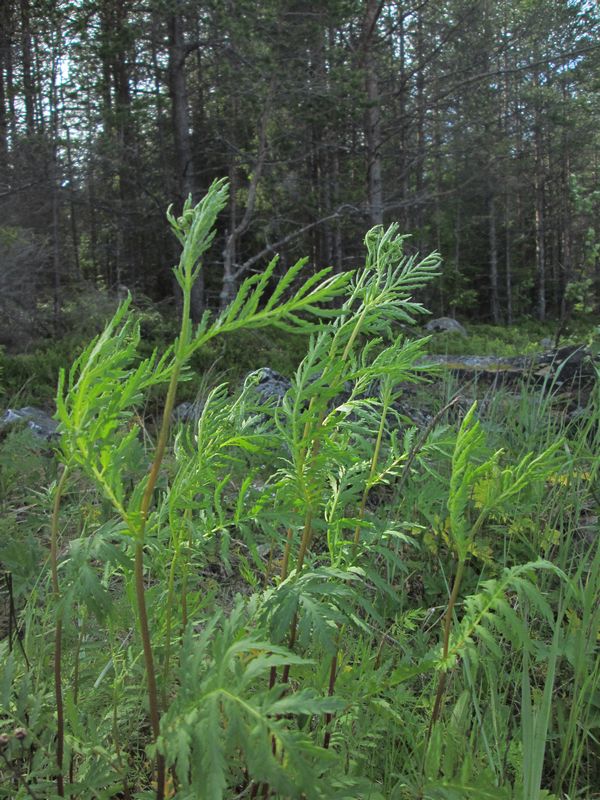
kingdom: Plantae
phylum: Tracheophyta
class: Magnoliopsida
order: Asterales
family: Asteraceae
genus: Tanacetum
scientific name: Tanacetum vulgare
